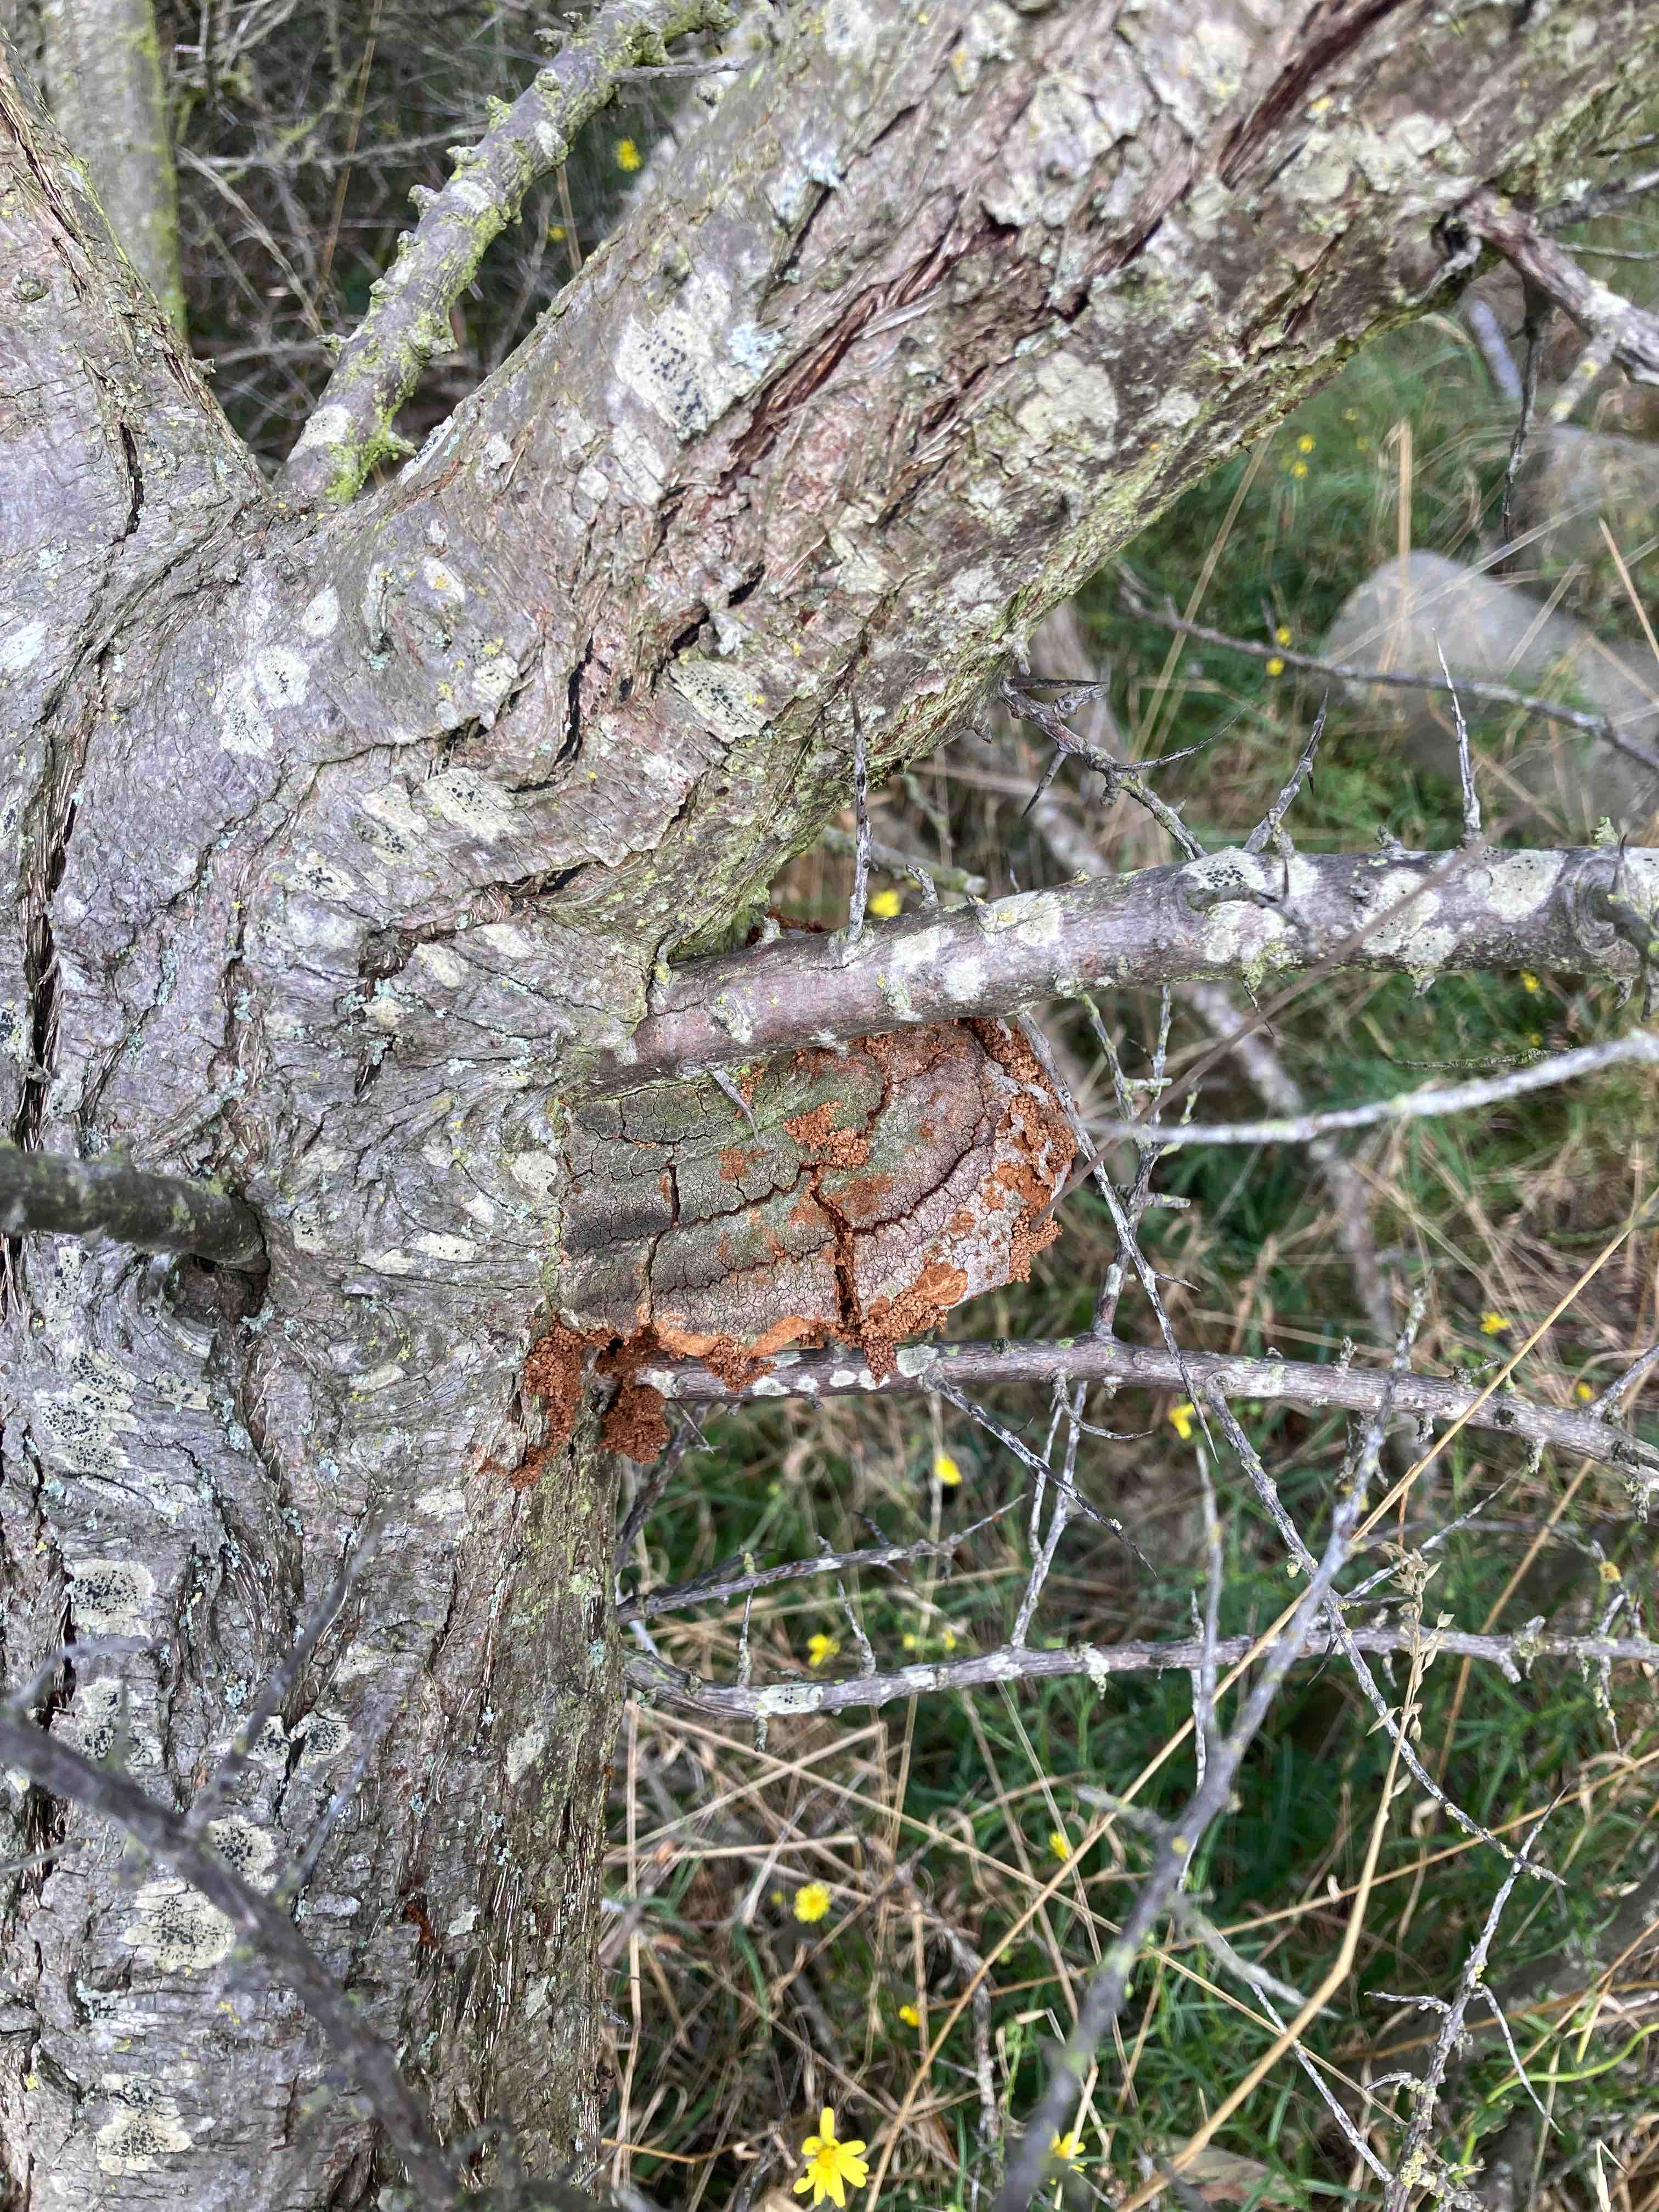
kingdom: Fungi
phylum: Basidiomycota
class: Agaricomycetes
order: Hymenochaetales
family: Hymenochaetaceae
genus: Fomitiporia
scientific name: Fomitiporia hippophaeicola
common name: havtorn-ildporesvamp
